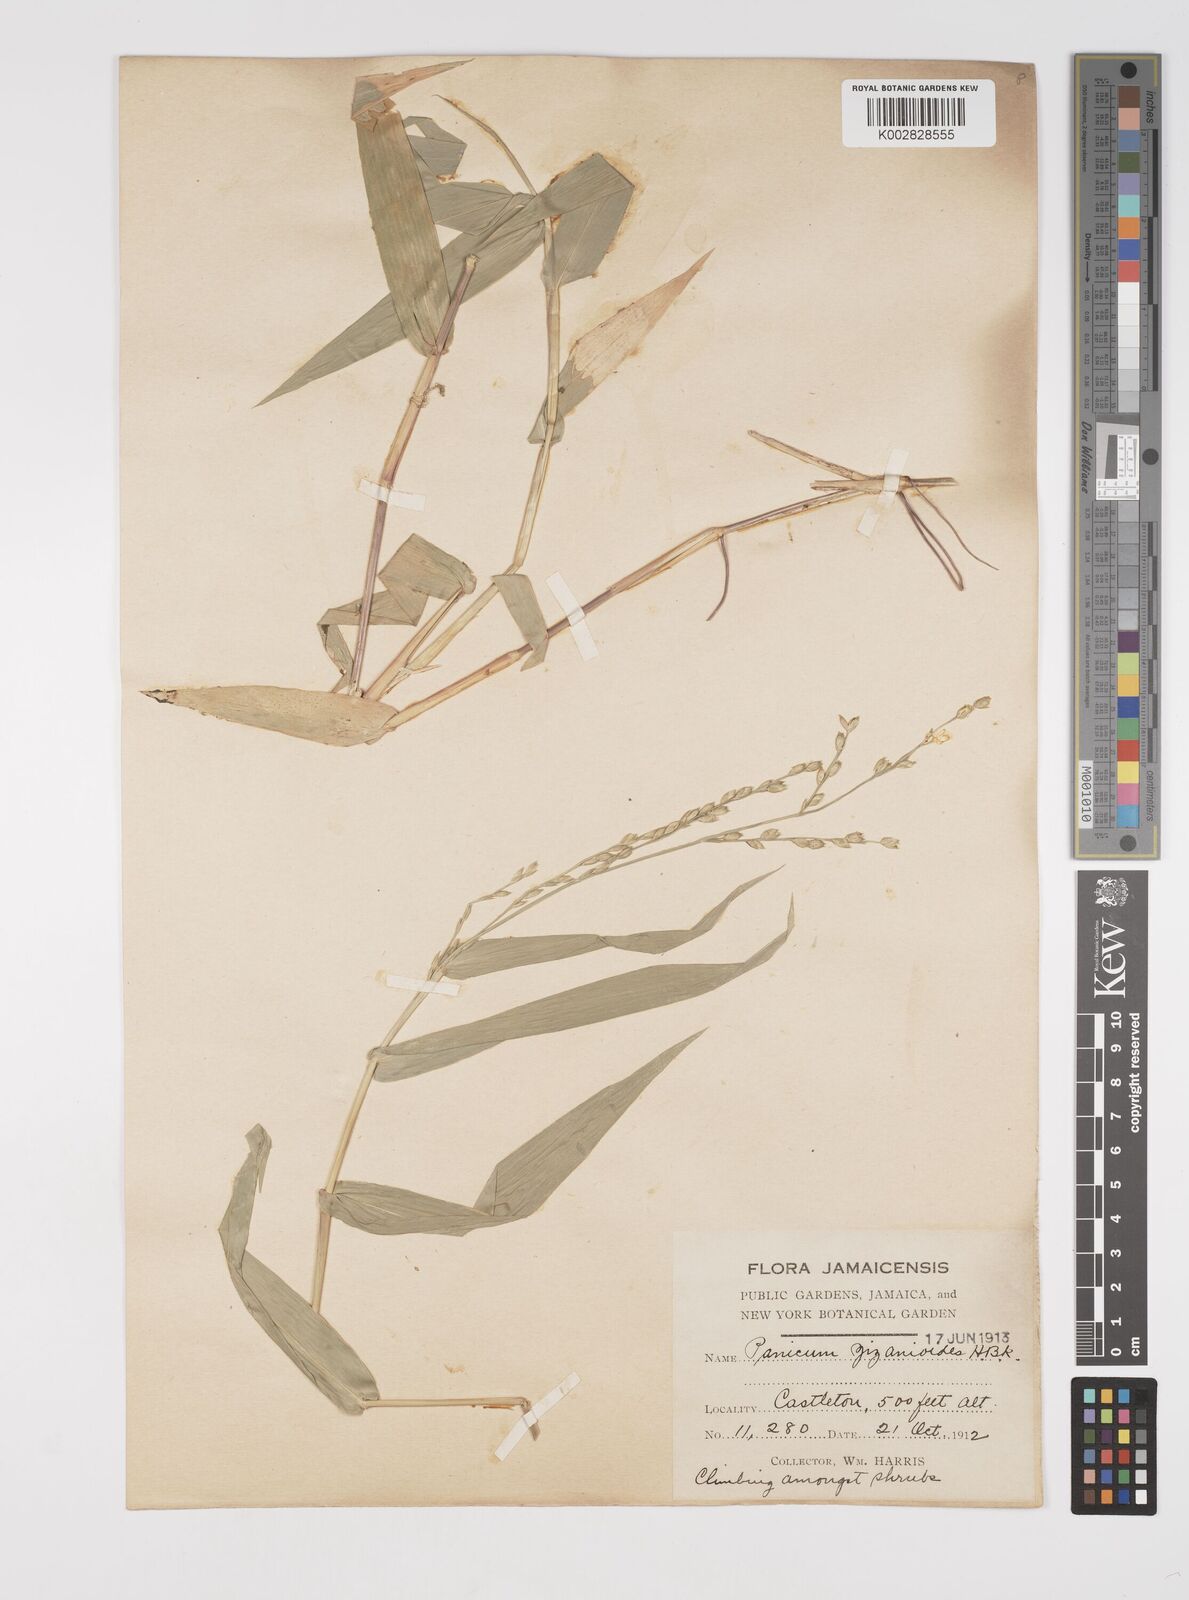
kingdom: Plantae
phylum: Tracheophyta
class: Liliopsida
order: Poales
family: Poaceae
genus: Acroceras
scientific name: Acroceras zizanioides
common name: Oat grass
